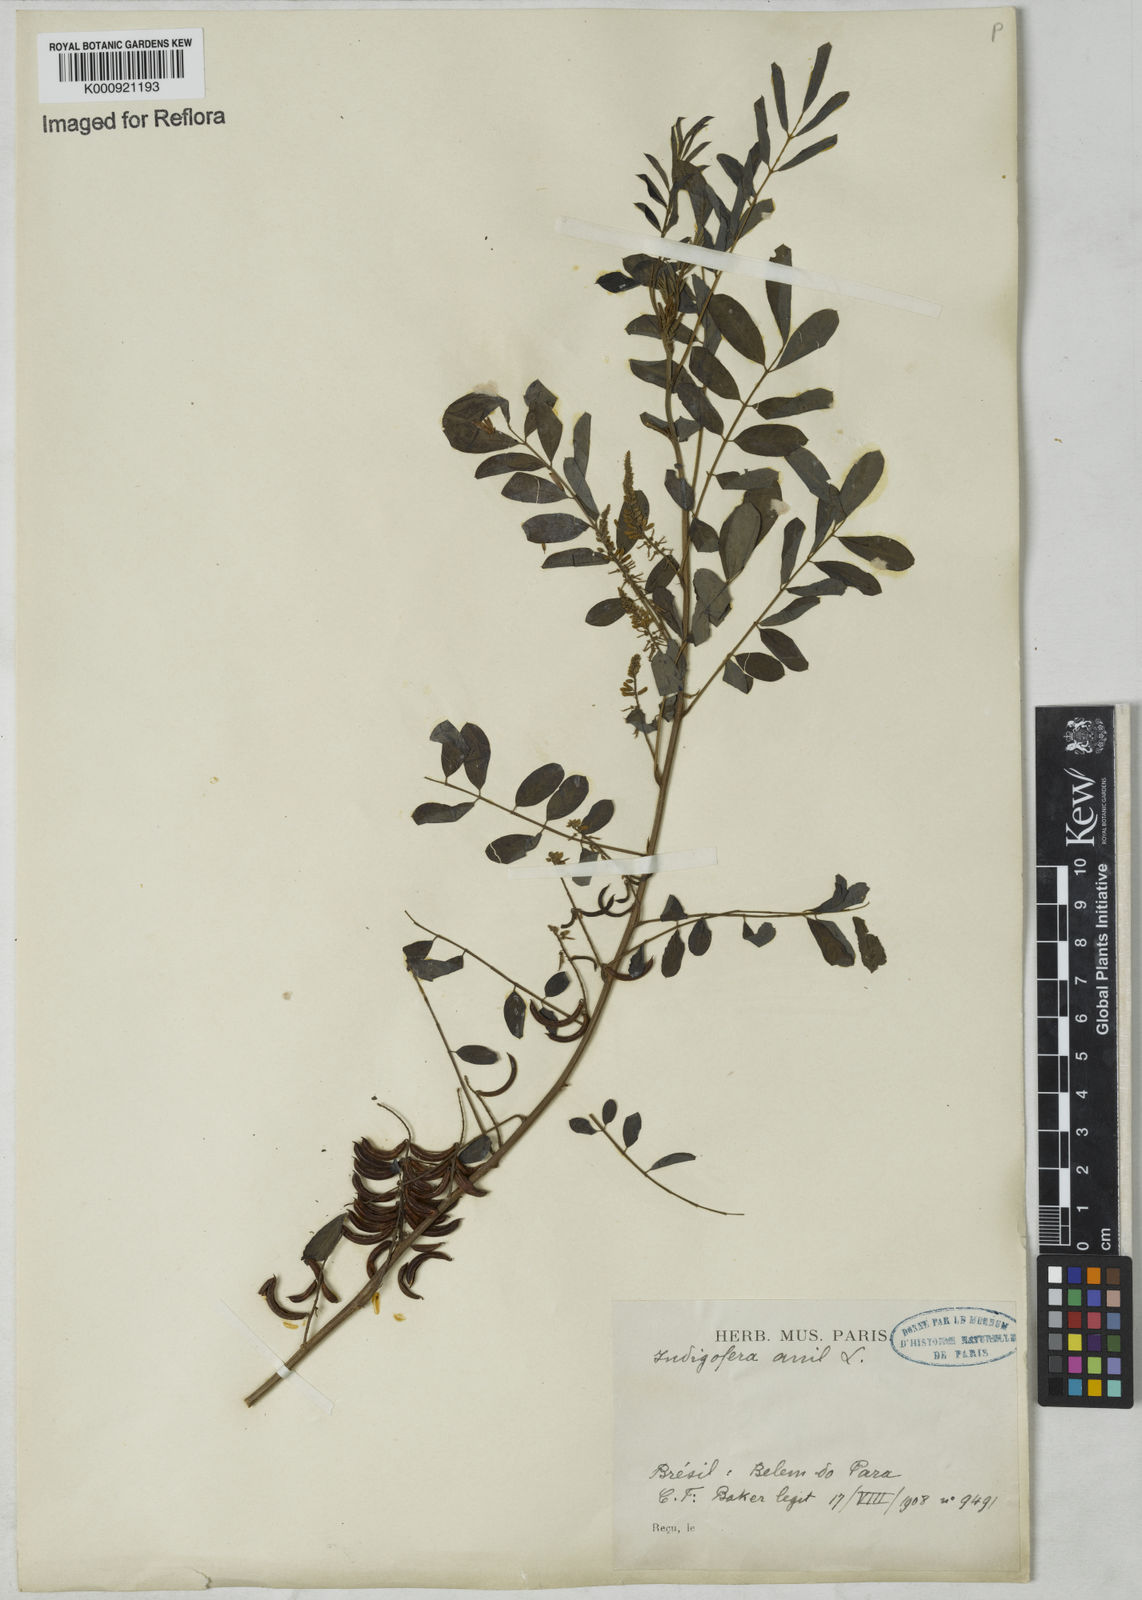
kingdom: Plantae
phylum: Tracheophyta
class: Magnoliopsida
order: Fabales
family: Fabaceae
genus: Indigofera
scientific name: Indigofera suffruticosa
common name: Anil de pasto
